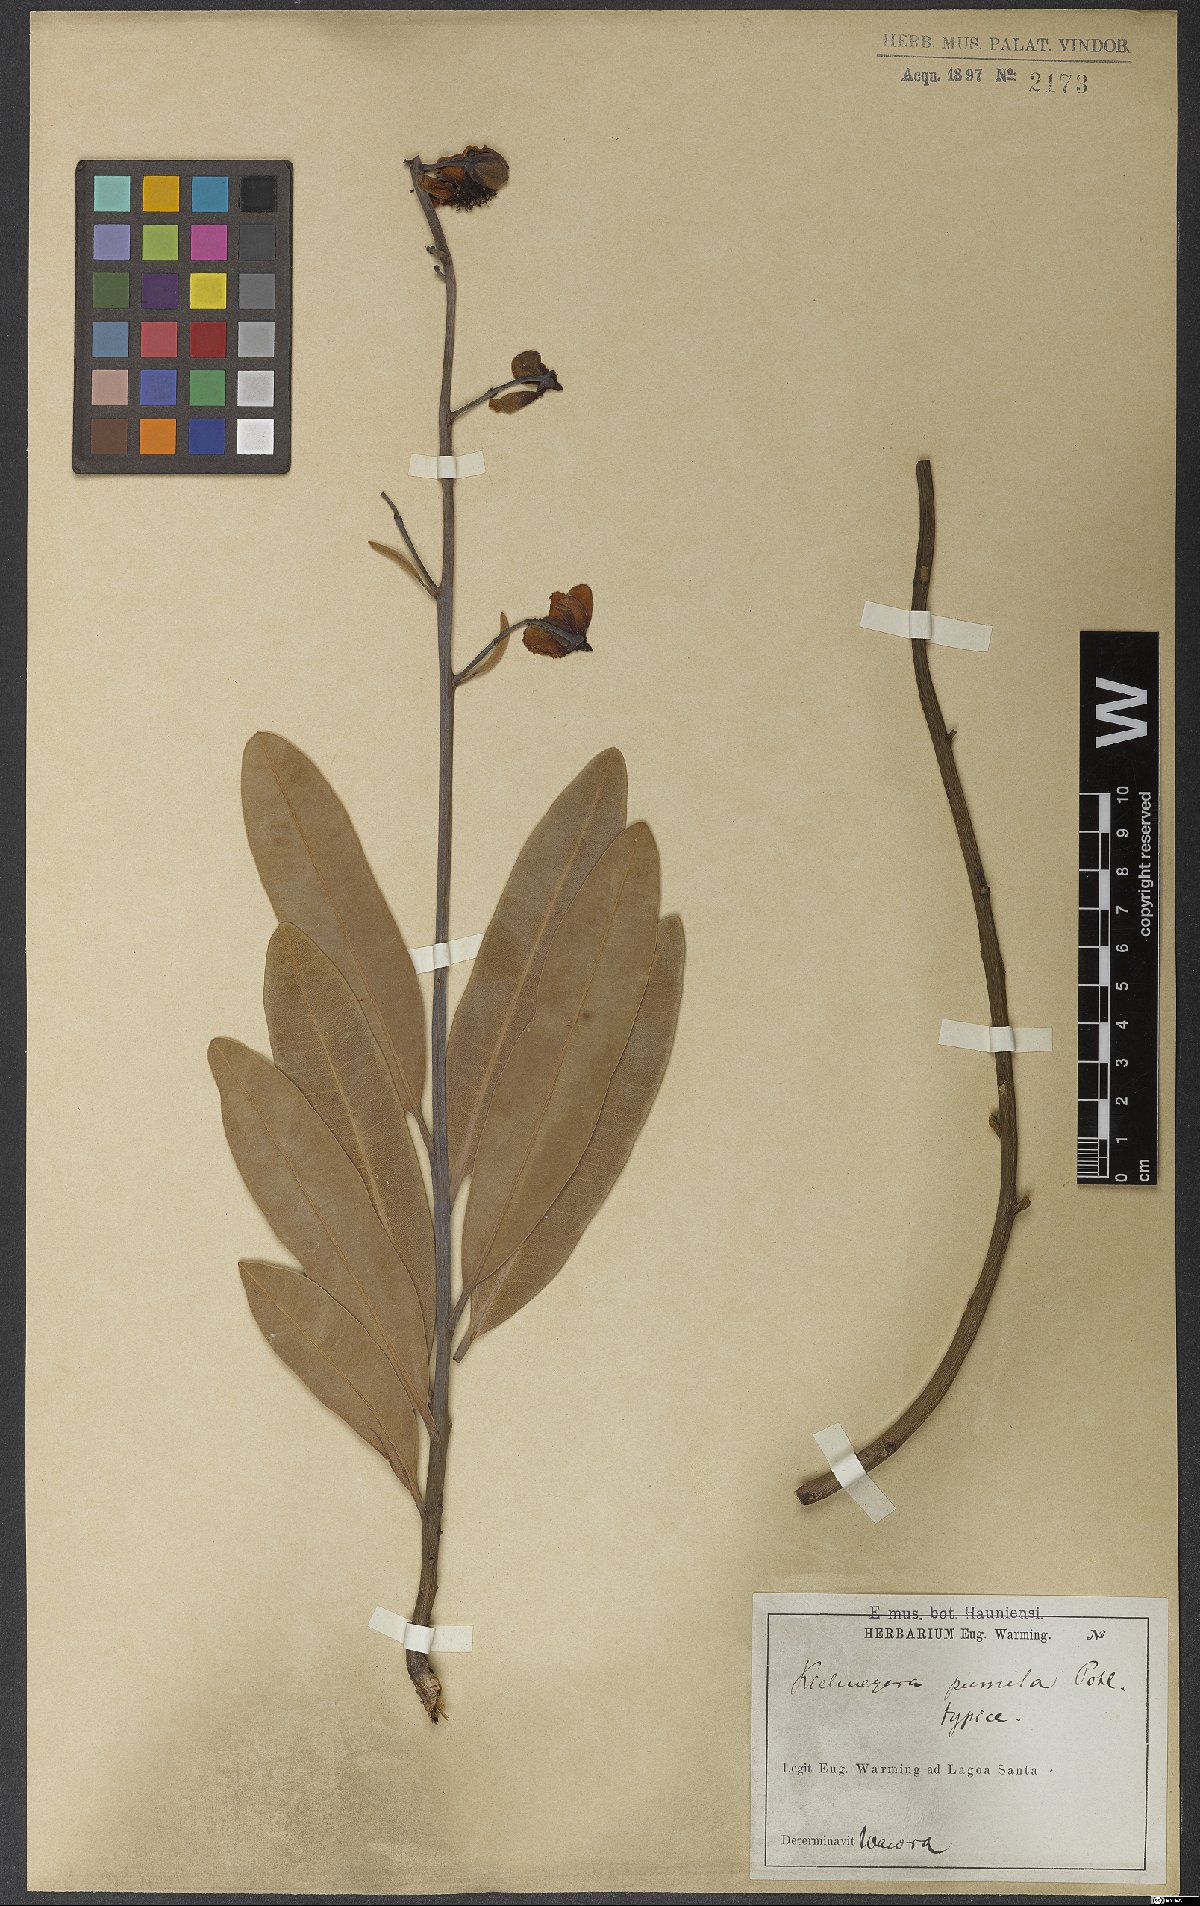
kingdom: Plantae
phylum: Tracheophyta
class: Magnoliopsida
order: Malpighiales
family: Calophyllaceae
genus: Kielmeyera
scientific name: Kielmeyera pumila
